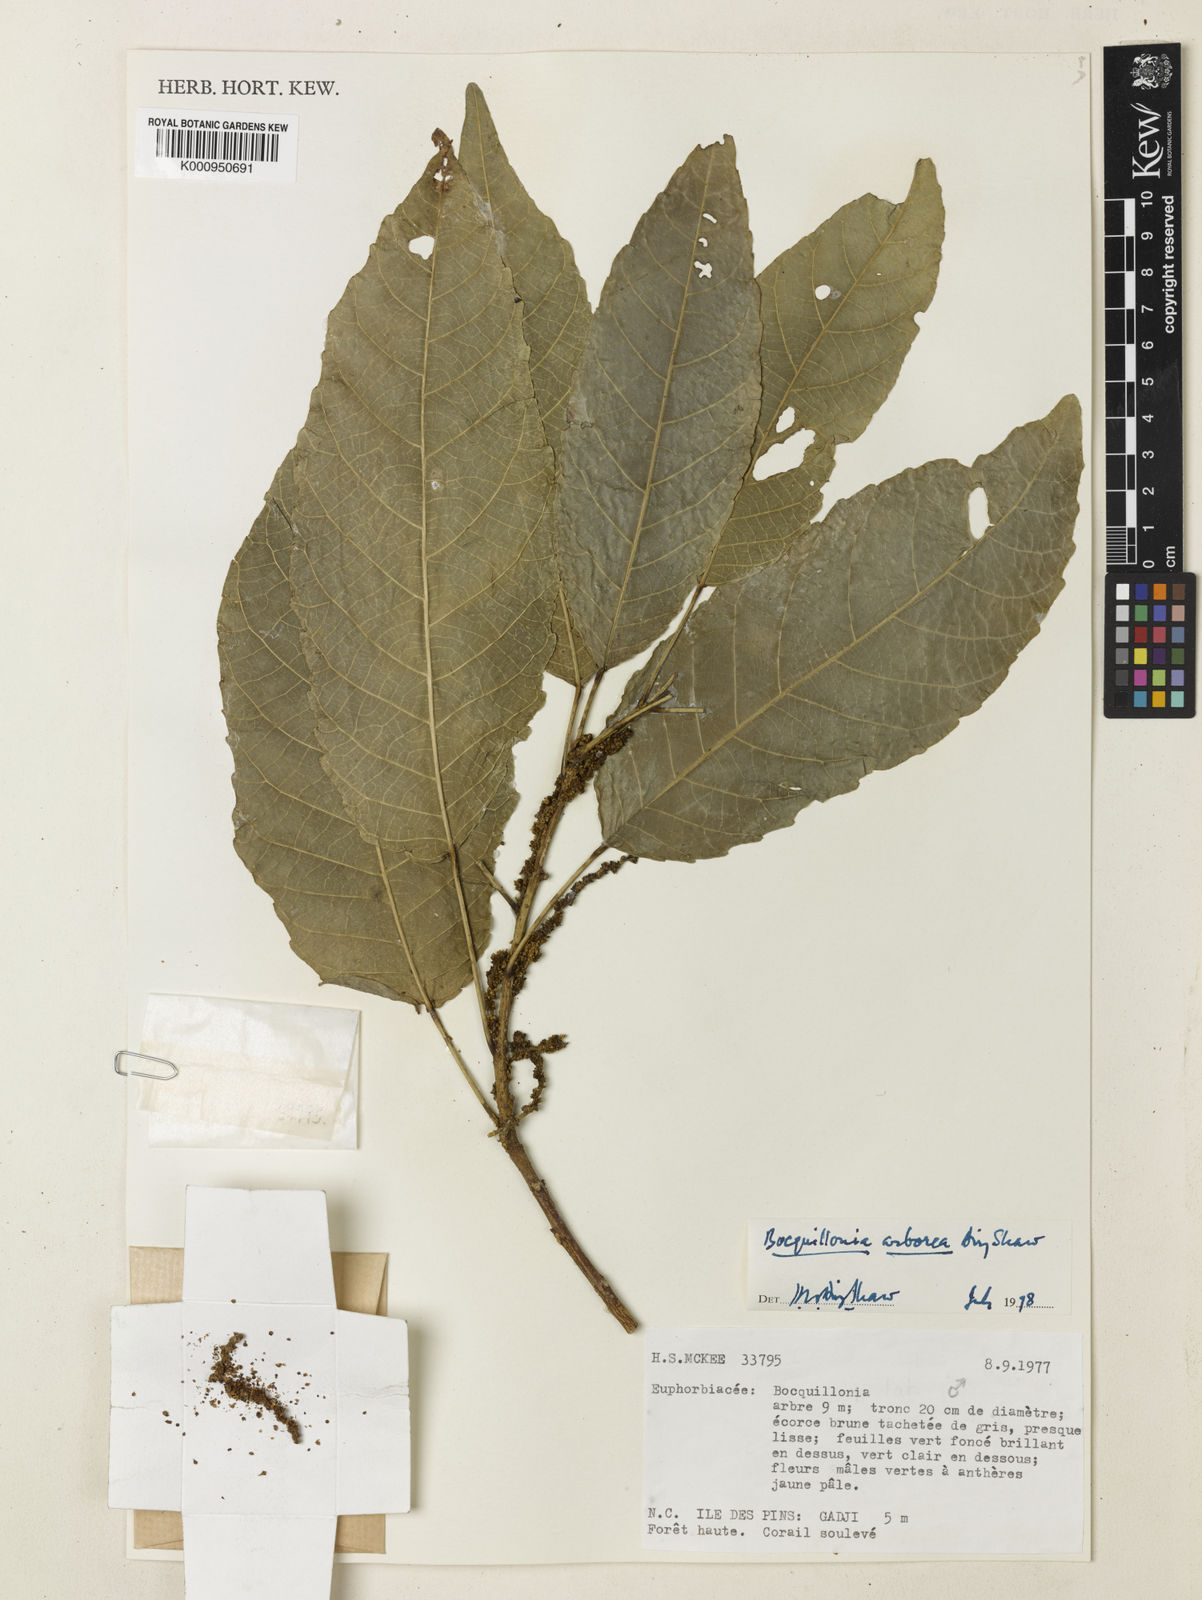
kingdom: Plantae
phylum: Tracheophyta
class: Magnoliopsida
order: Malpighiales
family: Euphorbiaceae
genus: Bocquillonia
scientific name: Bocquillonia arborea
